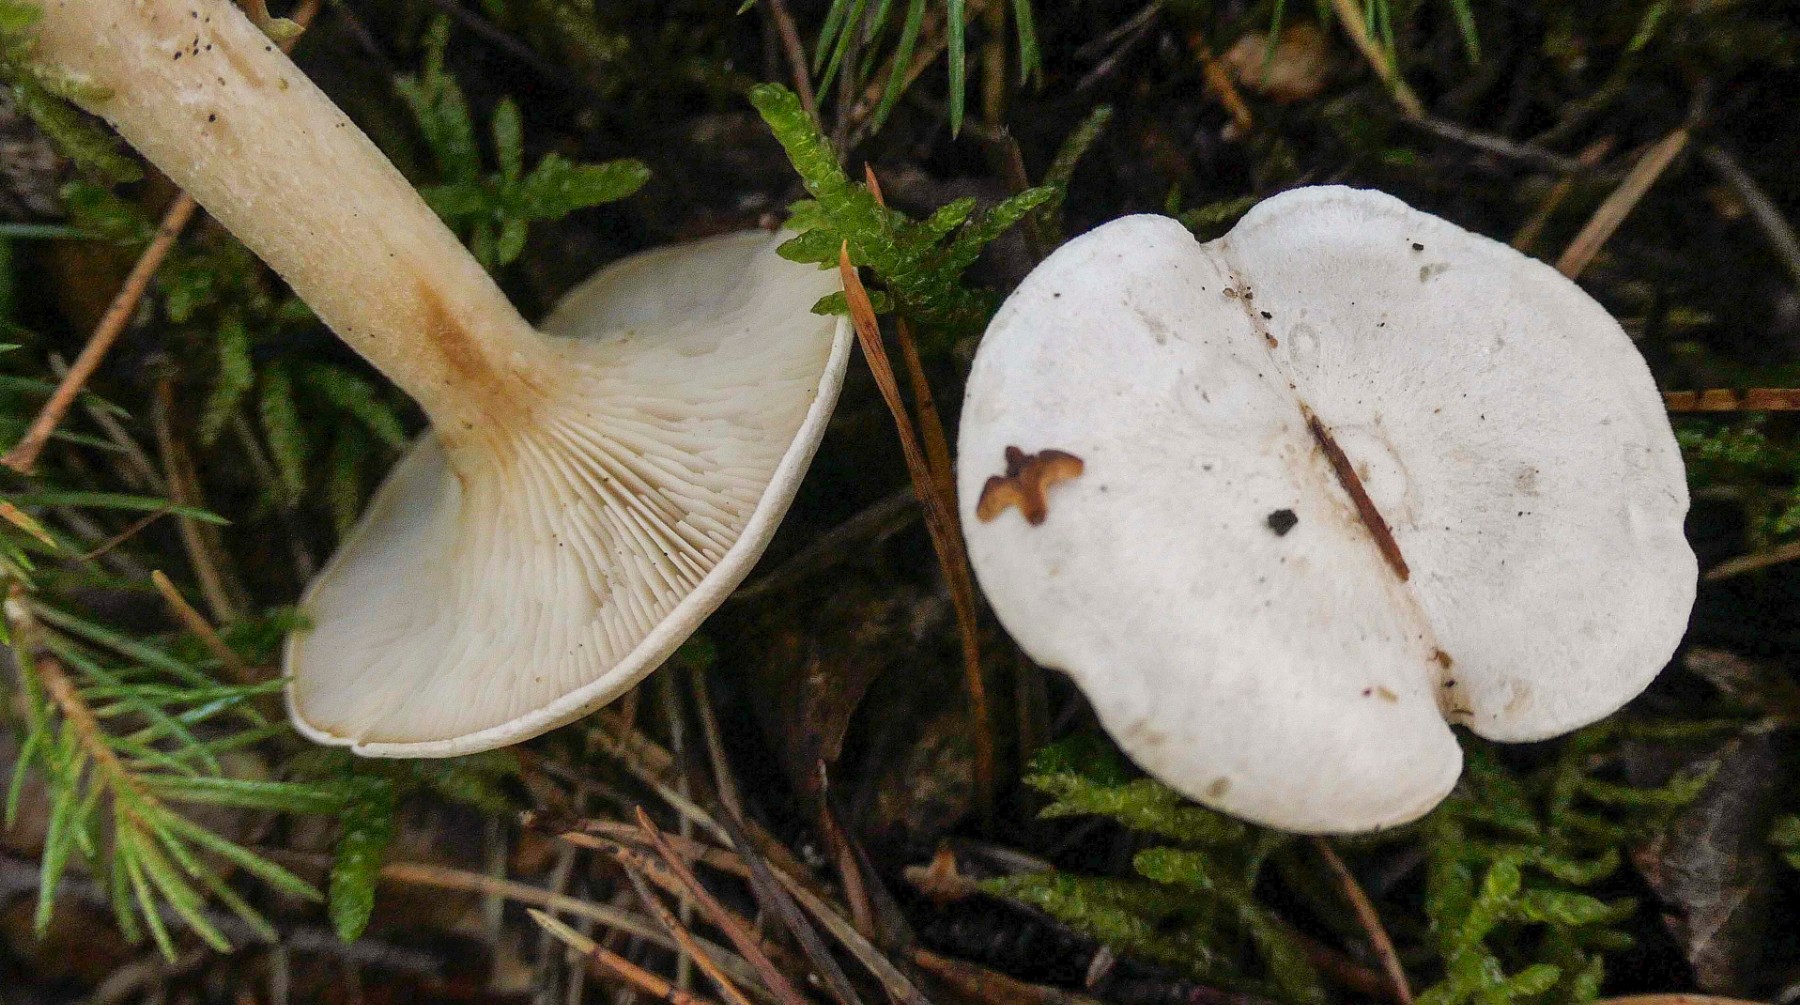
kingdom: Fungi
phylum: Basidiomycota
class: Agaricomycetes
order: Agaricales
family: Tricholomataceae
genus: Leucocybe
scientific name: Leucocybe candicans
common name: kridt-tragthat
